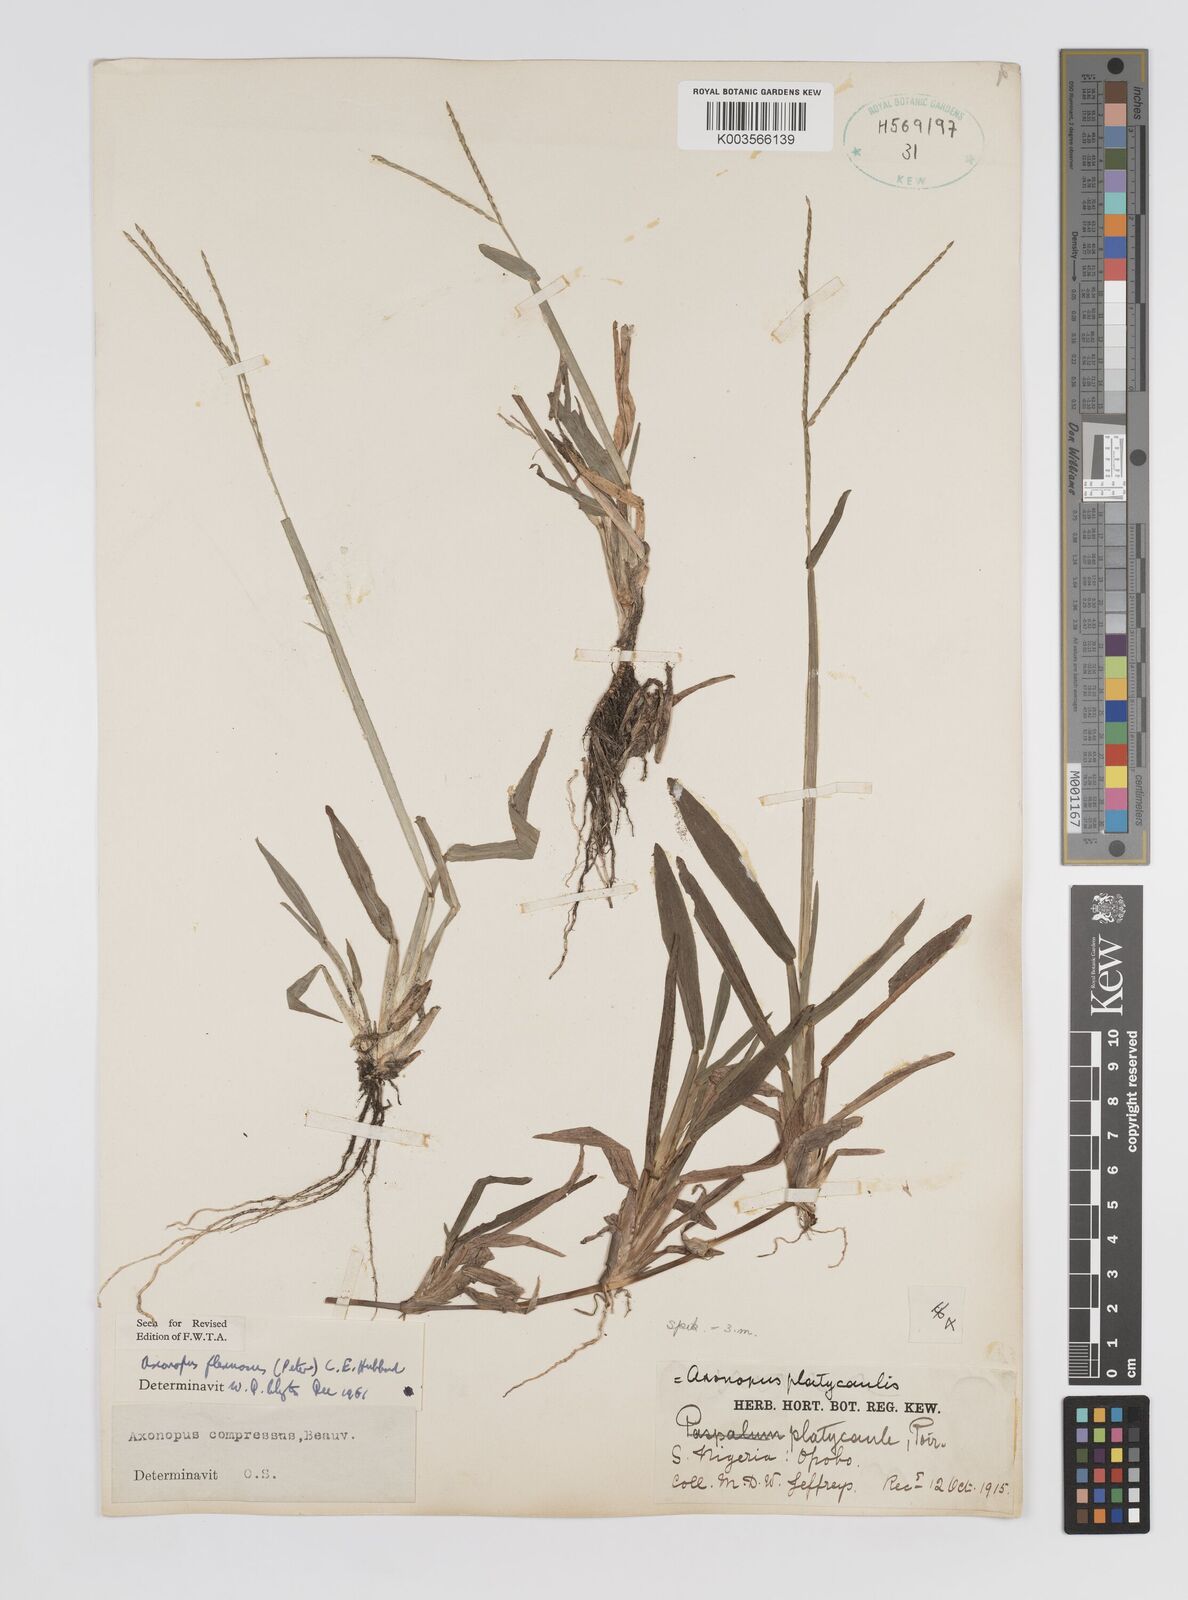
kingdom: Plantae
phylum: Tracheophyta
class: Liliopsida
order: Poales
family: Poaceae
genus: Axonopus
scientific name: Axonopus flexuosus
